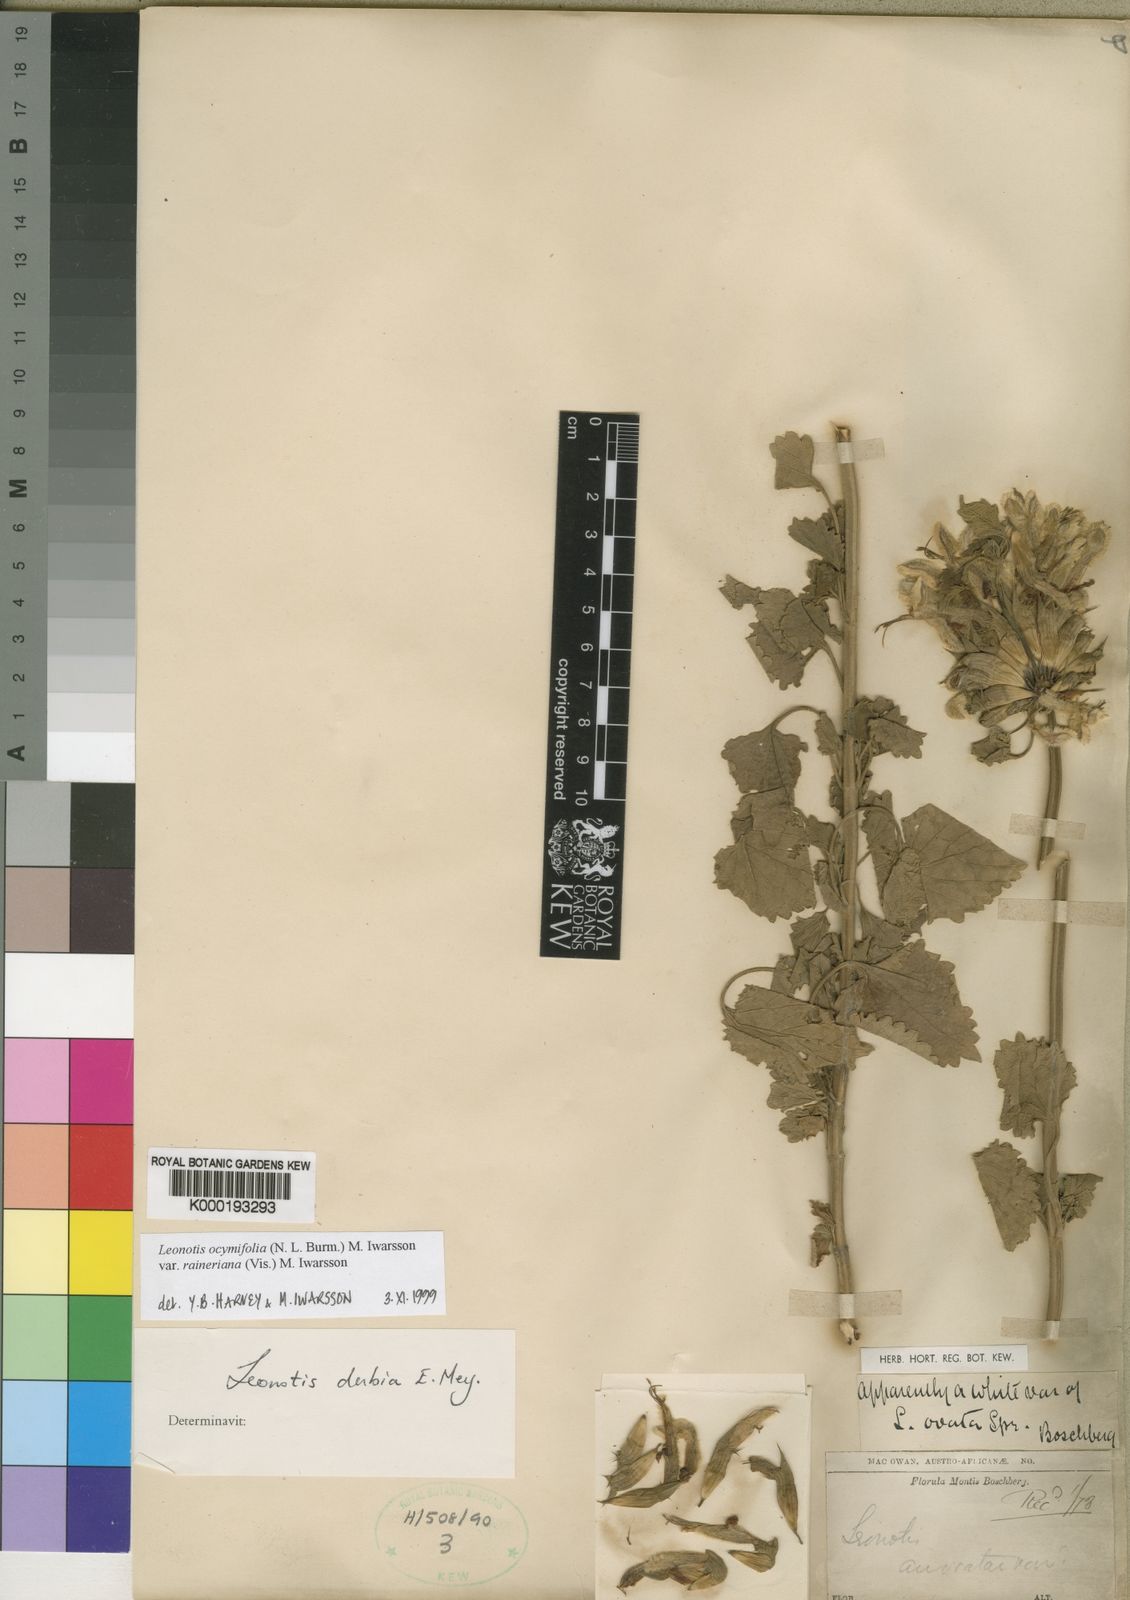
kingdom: Plantae
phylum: Tracheophyta
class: Magnoliopsida
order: Lamiales
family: Lamiaceae
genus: Leonotis
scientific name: Leonotis ocymifolia
